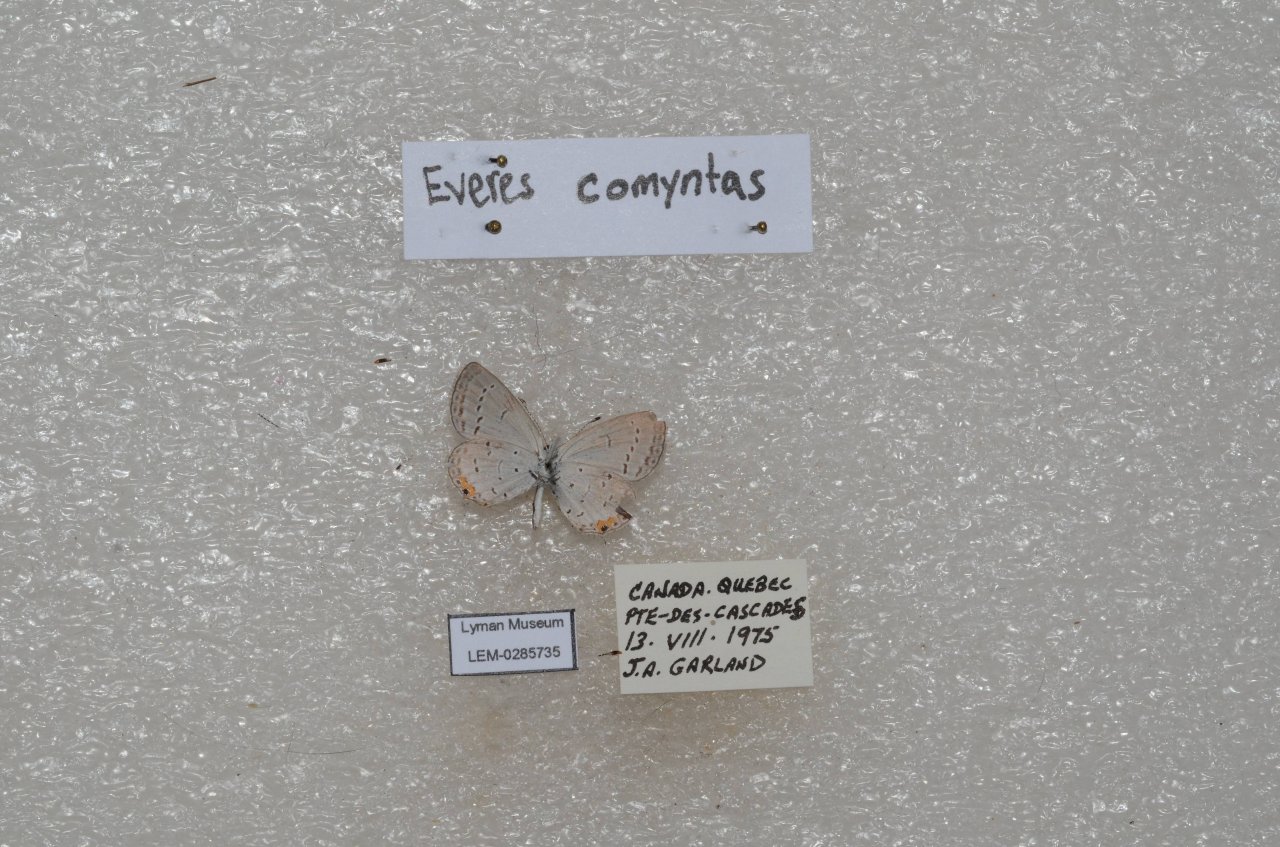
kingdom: Animalia
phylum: Arthropoda
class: Insecta
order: Lepidoptera
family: Lycaenidae
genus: Elkalyce
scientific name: Elkalyce comyntas
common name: Eastern Tailed-Blue
